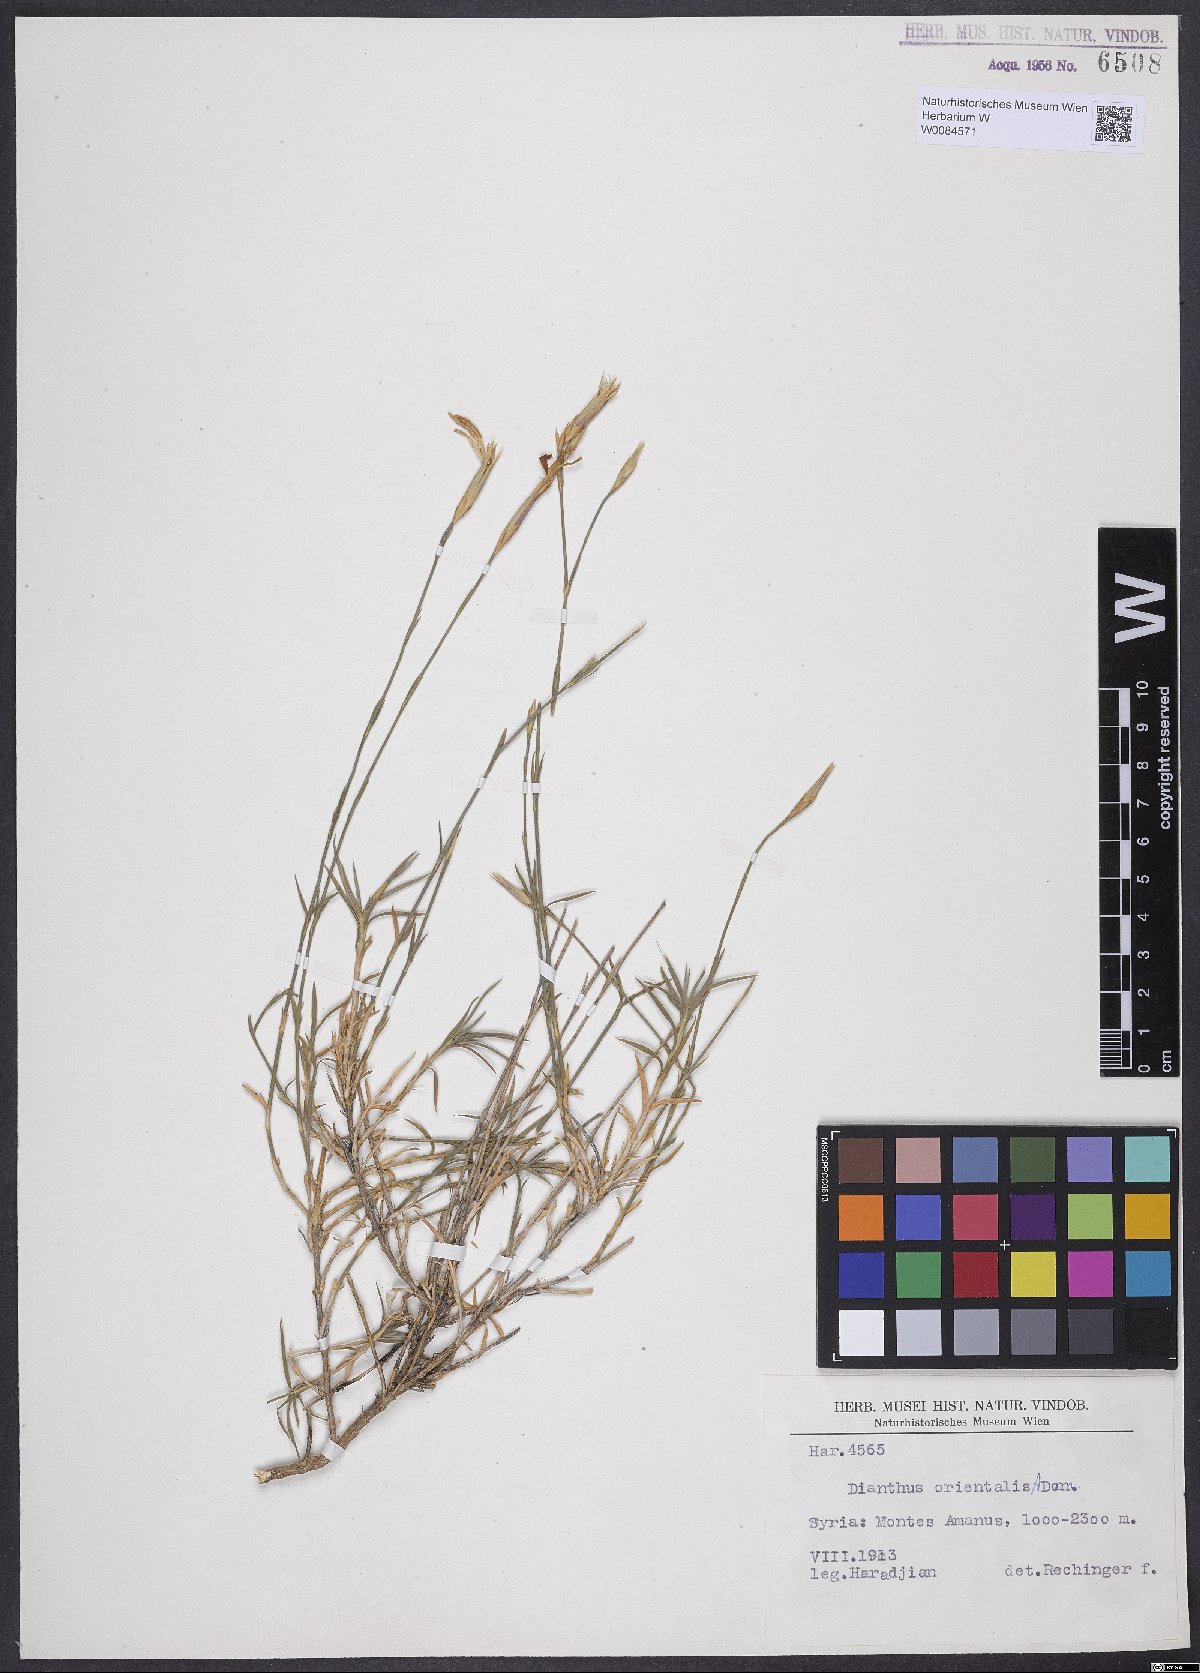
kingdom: Plantae
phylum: Tracheophyta
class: Magnoliopsida
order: Caryophyllales
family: Caryophyllaceae
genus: Dianthus
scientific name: Dianthus orientalis
